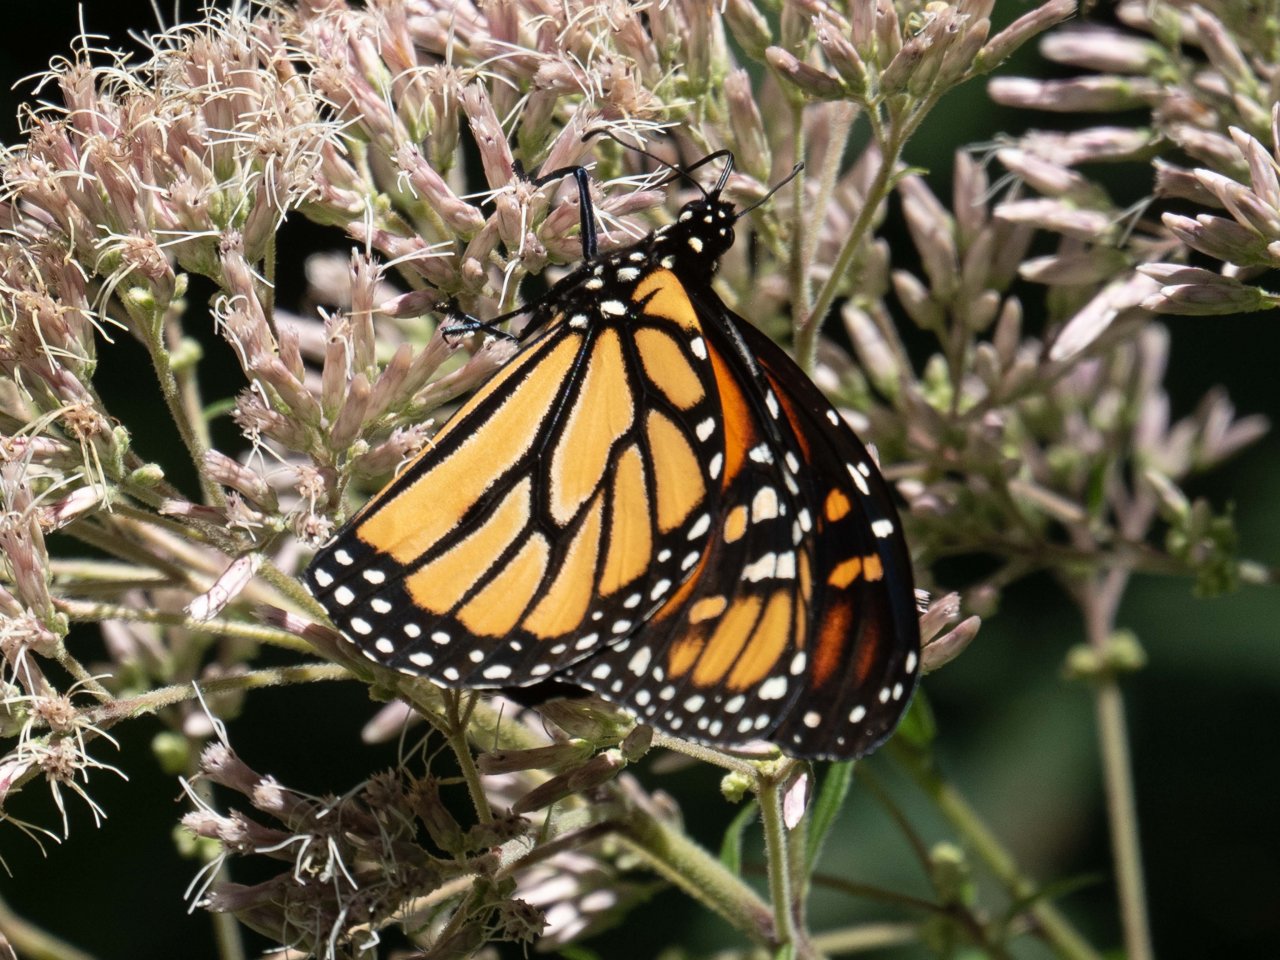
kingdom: Animalia
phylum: Arthropoda
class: Insecta
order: Lepidoptera
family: Nymphalidae
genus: Danaus
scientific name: Danaus plexippus
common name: Monarch
